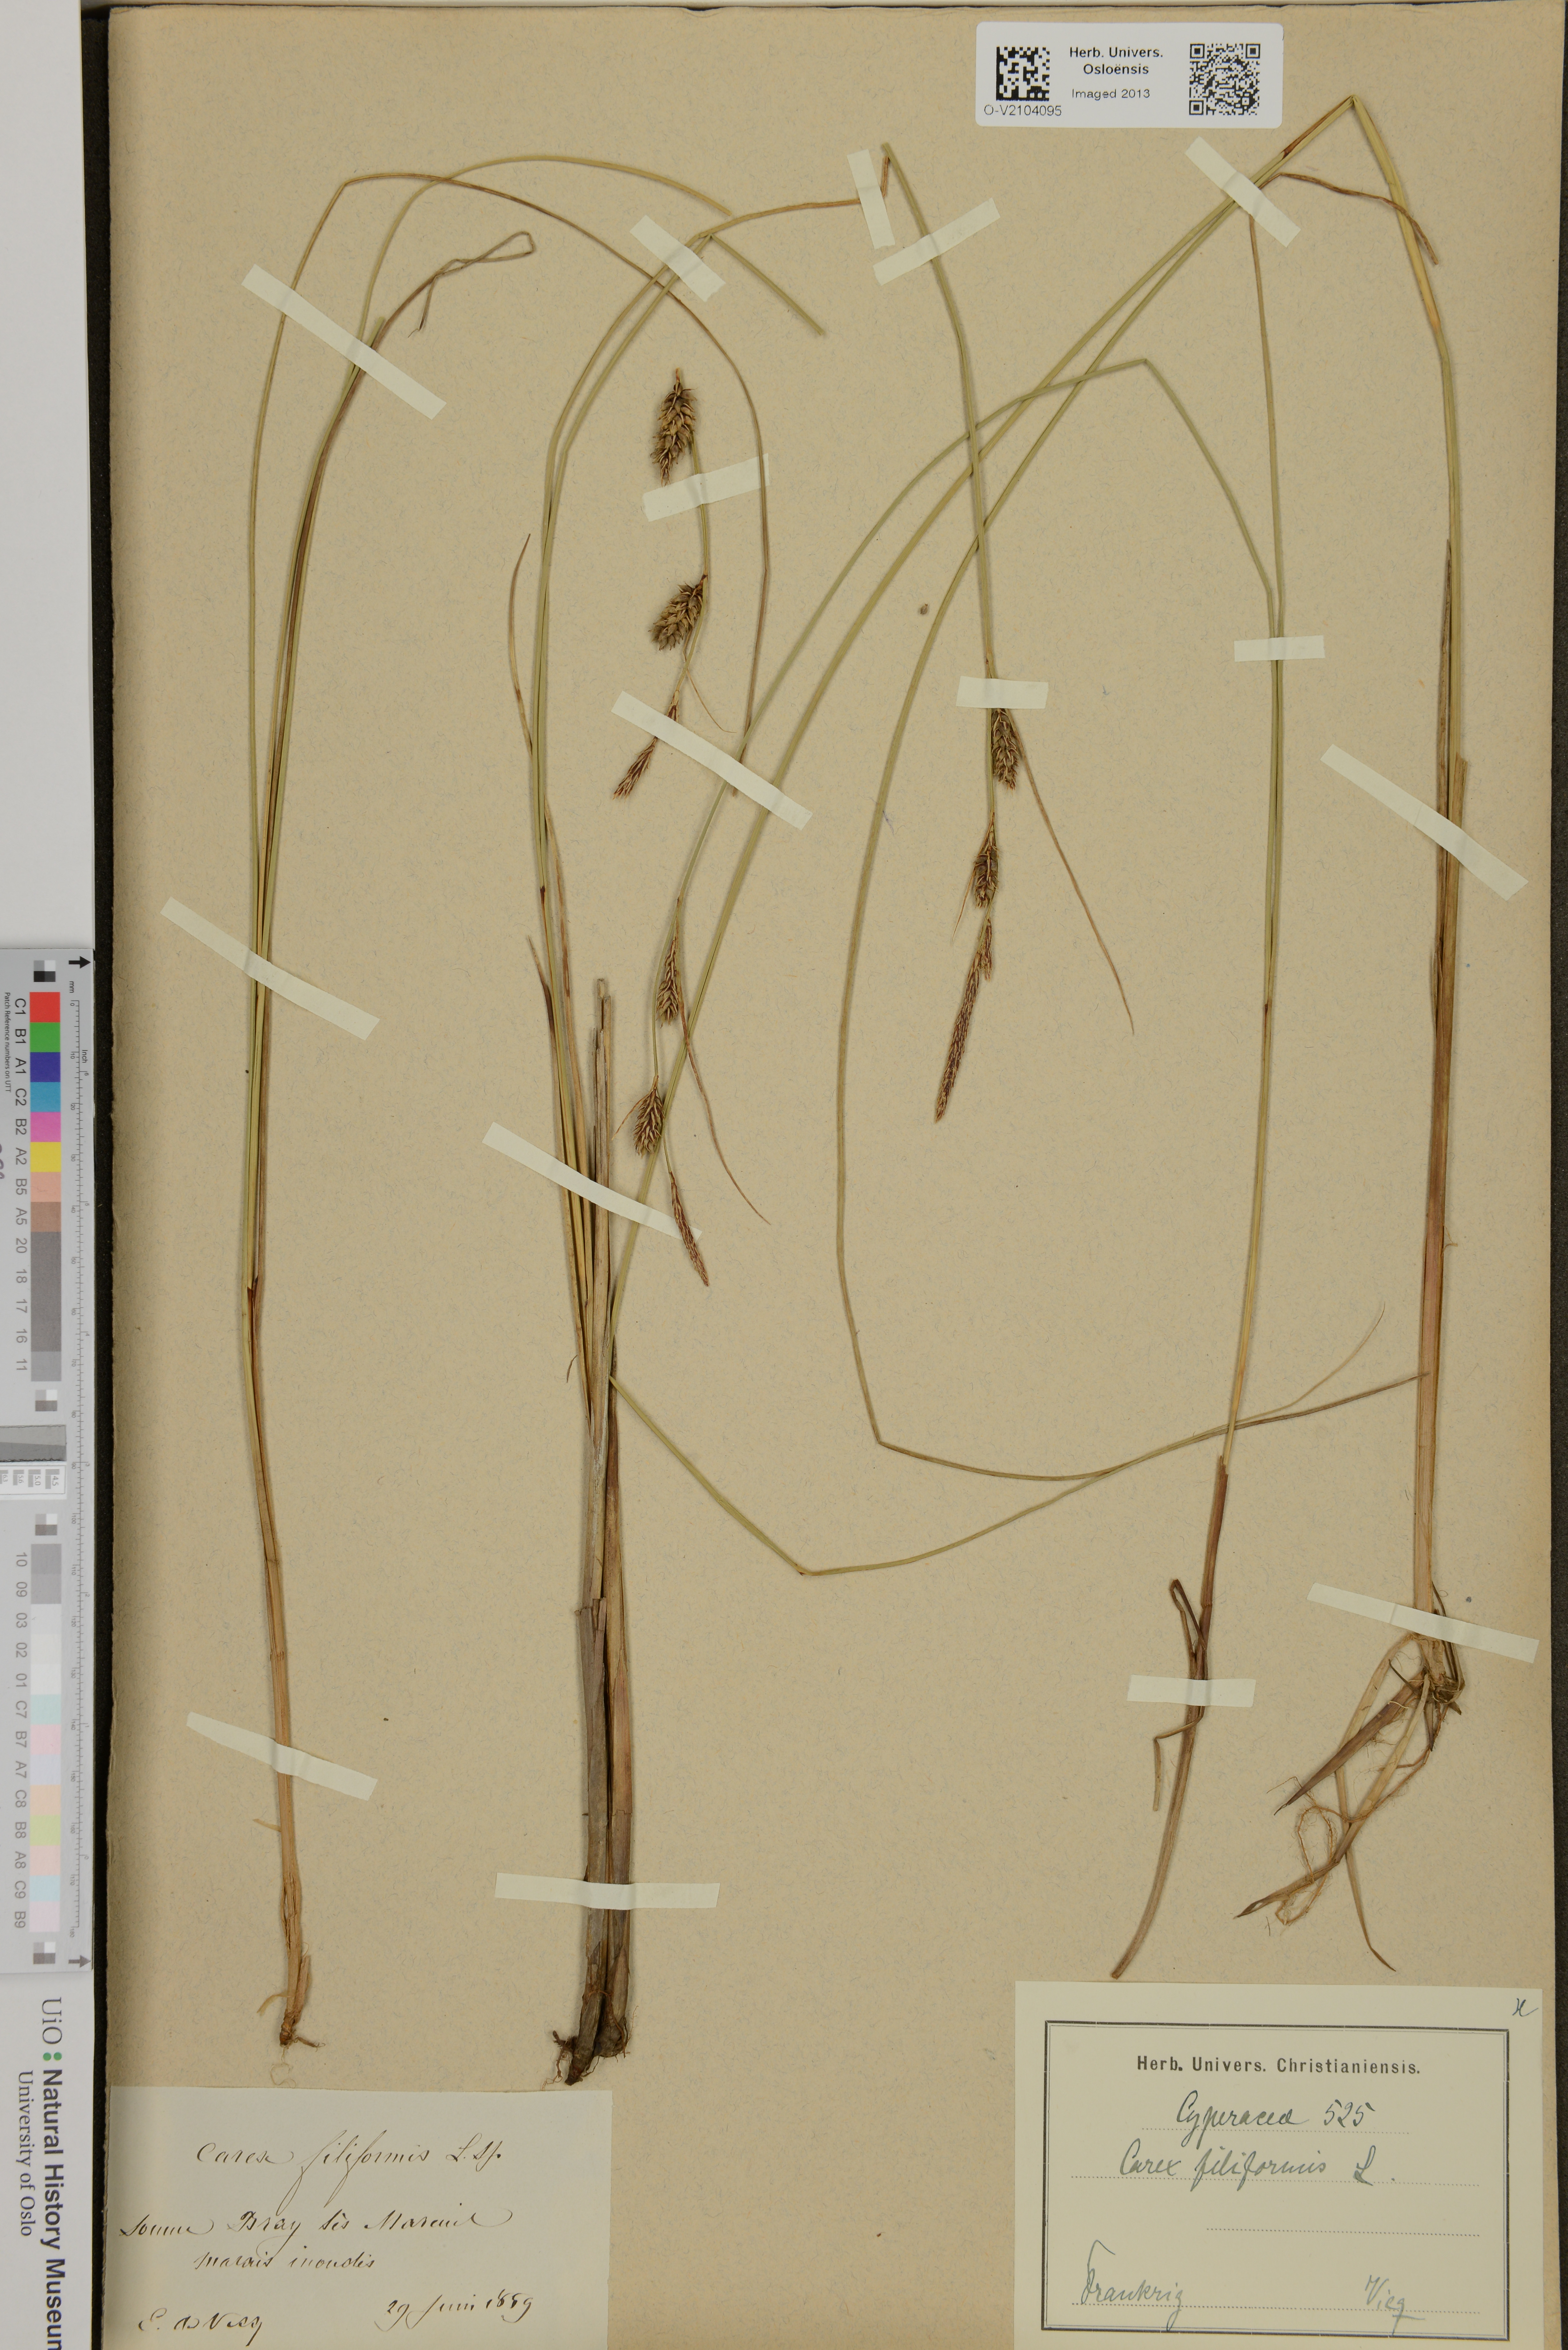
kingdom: Plantae
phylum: Tracheophyta
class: Liliopsida
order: Poales
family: Cyperaceae
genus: Carex
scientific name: Carex montana
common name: Soft-leaved sedge
